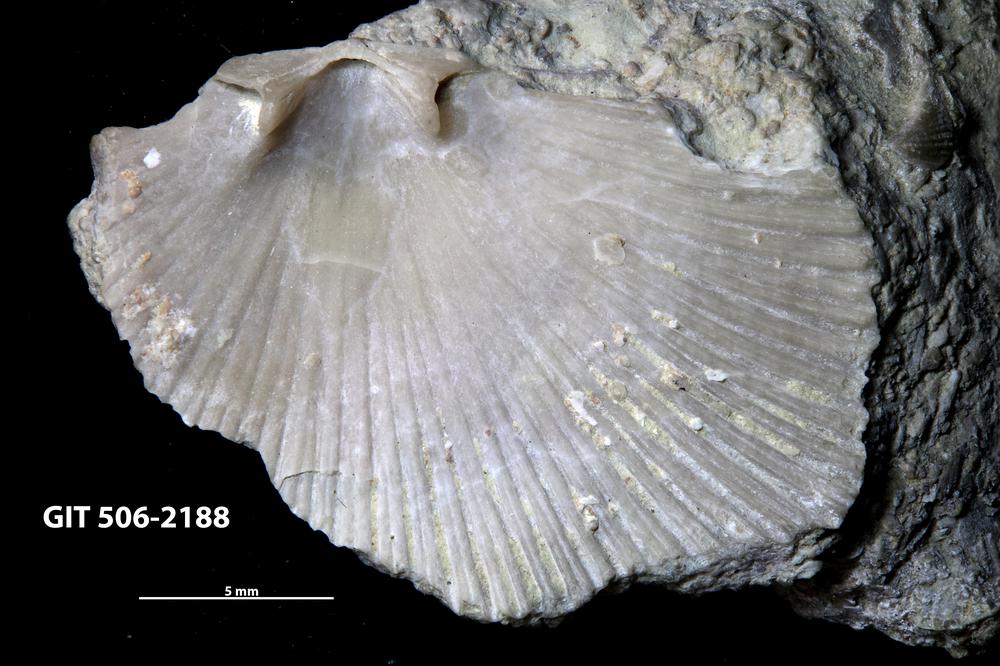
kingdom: Animalia
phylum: Brachiopoda
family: Chilidiopsidae
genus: Fardenia
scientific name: Fardenia Orthis applanata
